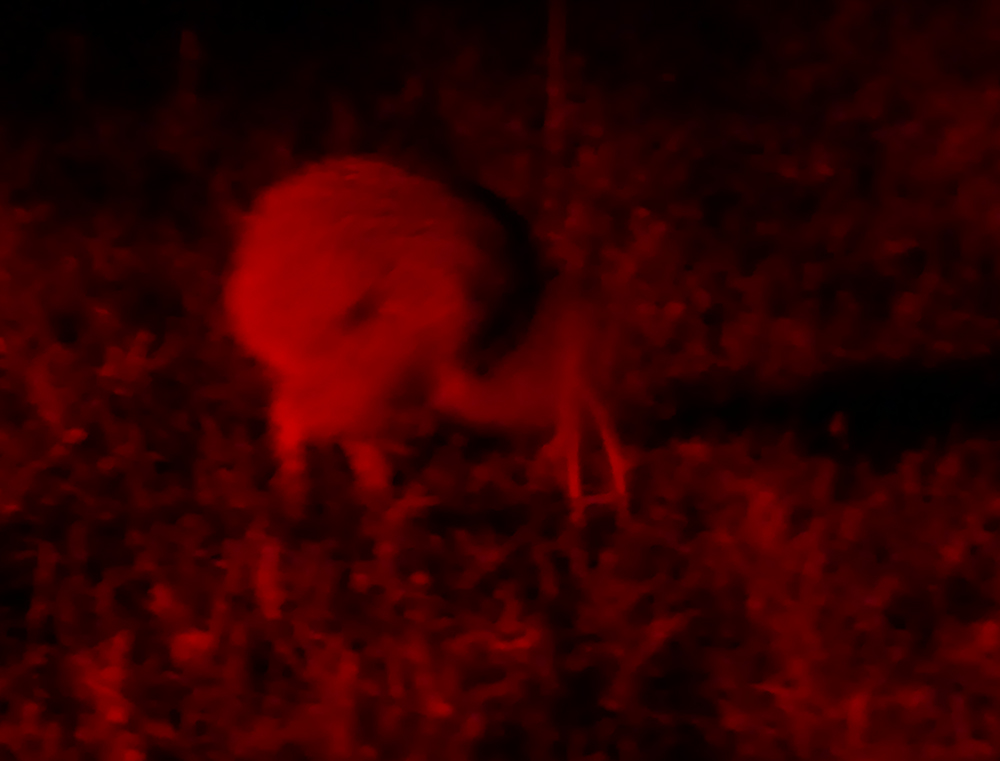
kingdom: Animalia
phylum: Chordata
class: Aves
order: Apterygiformes
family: Apterygidae
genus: Apteryx
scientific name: Apteryx australis
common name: Southern brown kiwi
